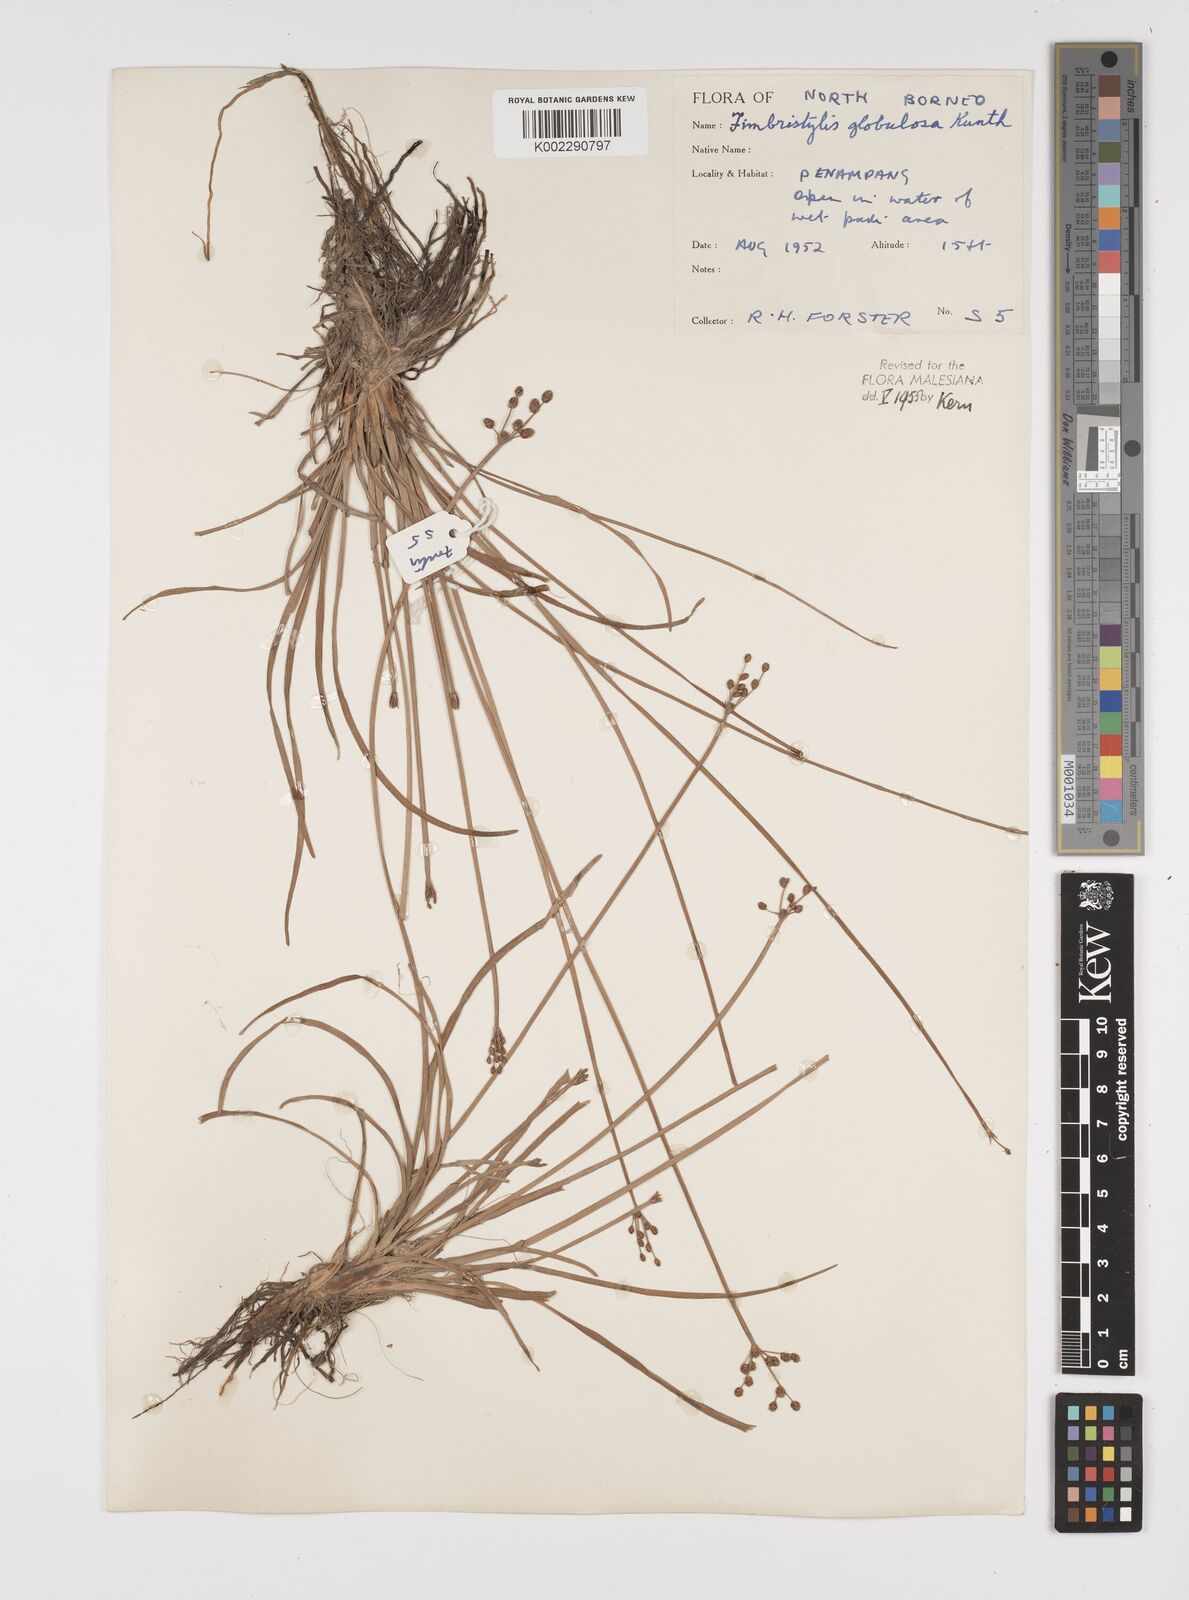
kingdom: Plantae
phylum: Tracheophyta
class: Liliopsida
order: Poales
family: Cyperaceae
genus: Fimbristylis
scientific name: Fimbristylis umbellaris
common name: Globular fimbristylis
